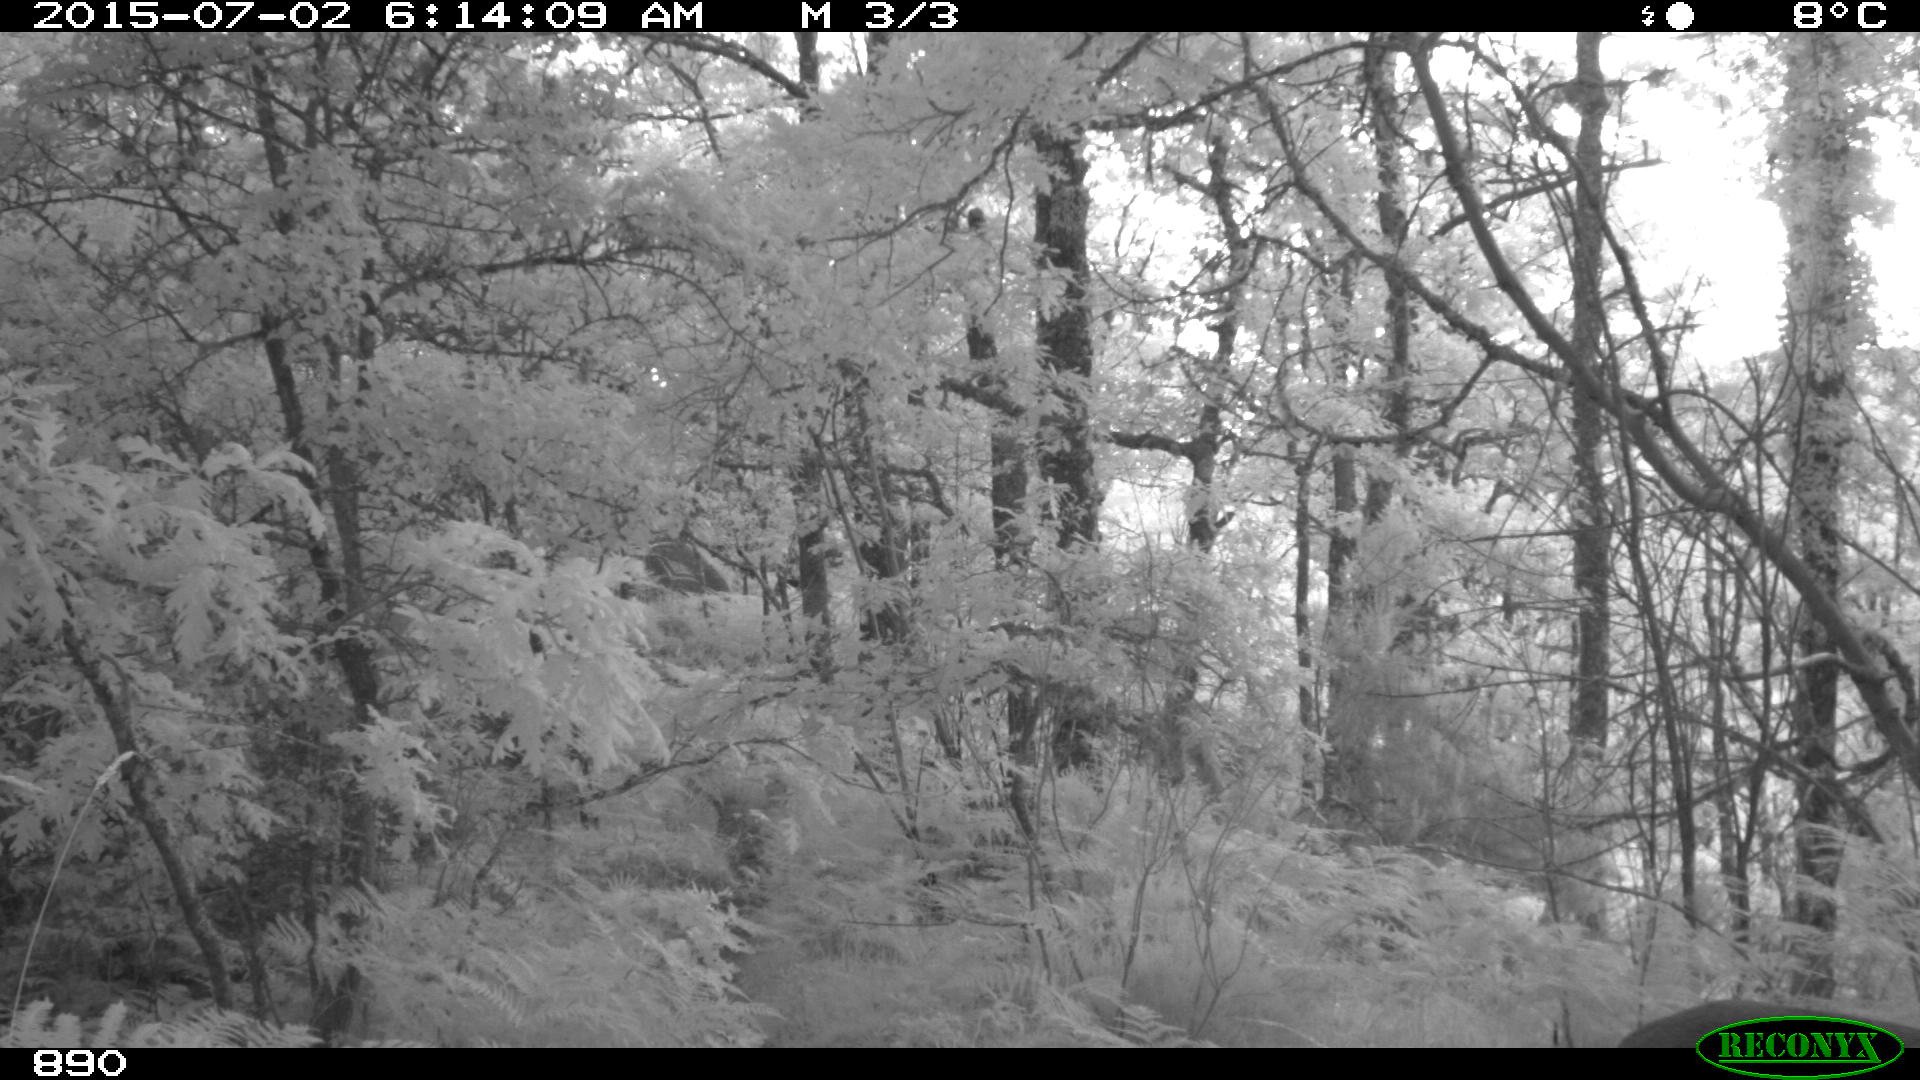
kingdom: Animalia
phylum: Chordata
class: Mammalia
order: Artiodactyla
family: Cervidae
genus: Capreolus
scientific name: Capreolus capreolus
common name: Western roe deer
